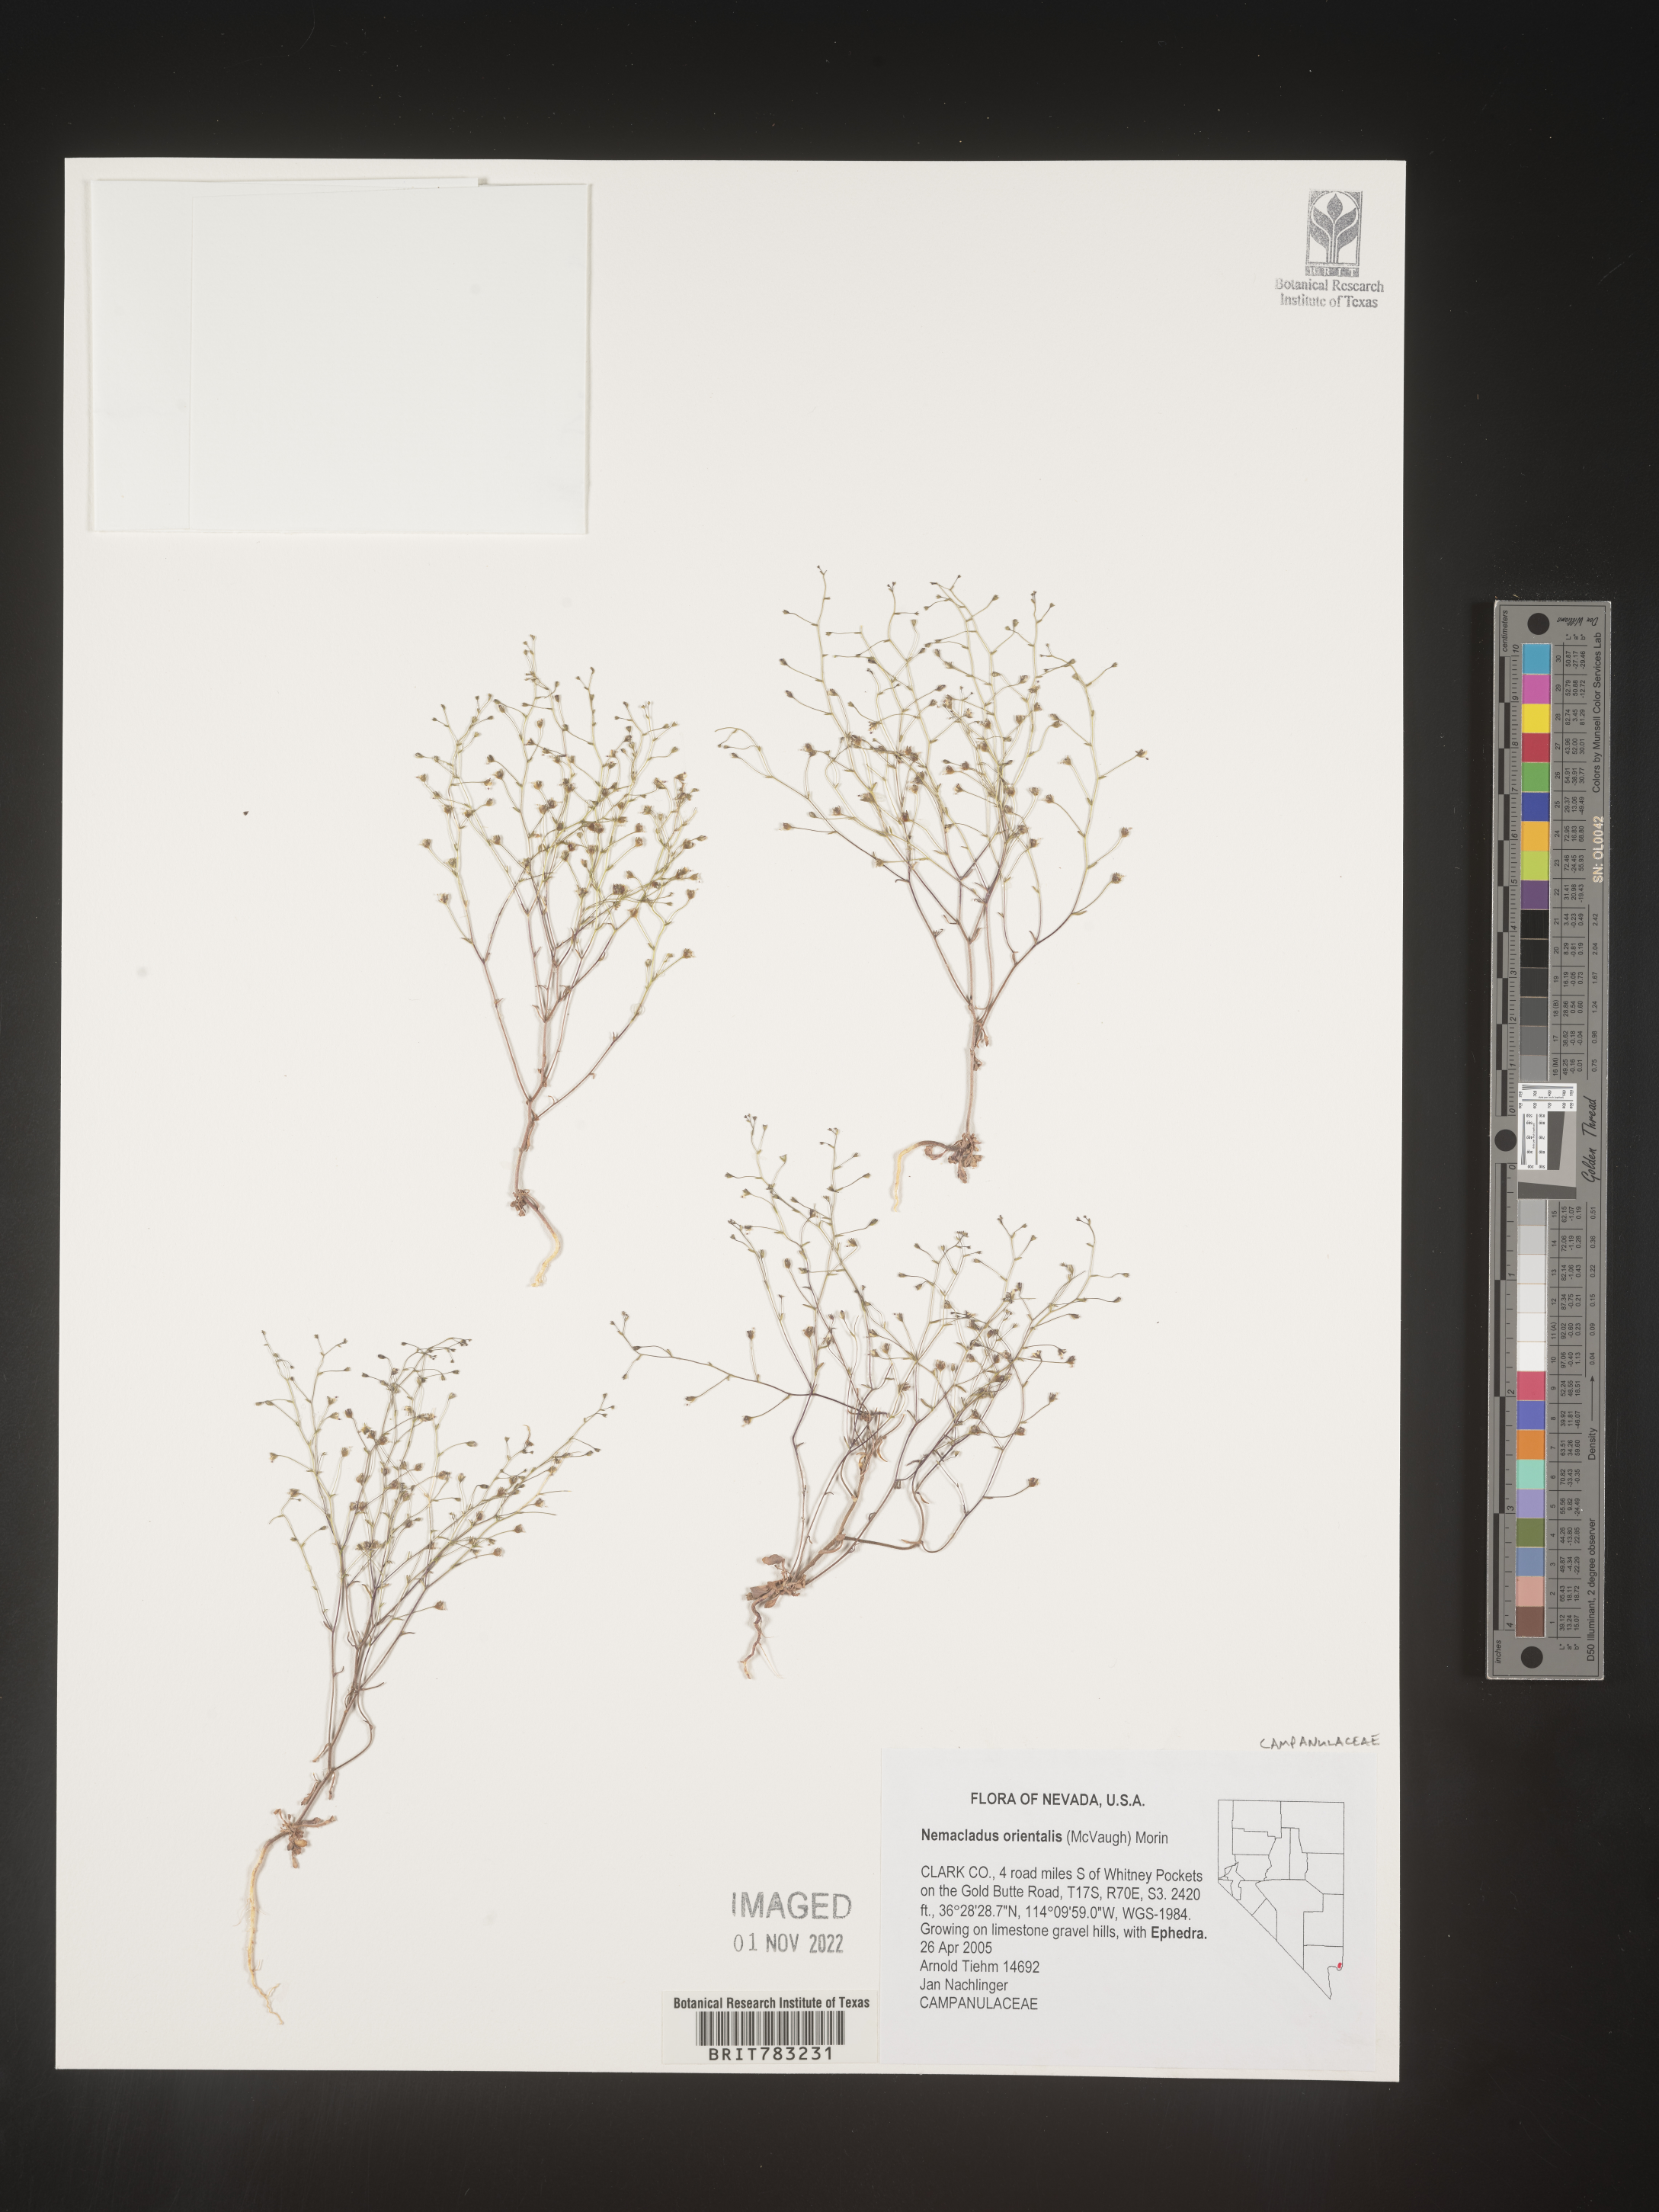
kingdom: Plantae
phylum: Tracheophyta
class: Magnoliopsida
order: Asterales
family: Campanulaceae
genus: Nemacladus
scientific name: Nemacladus
